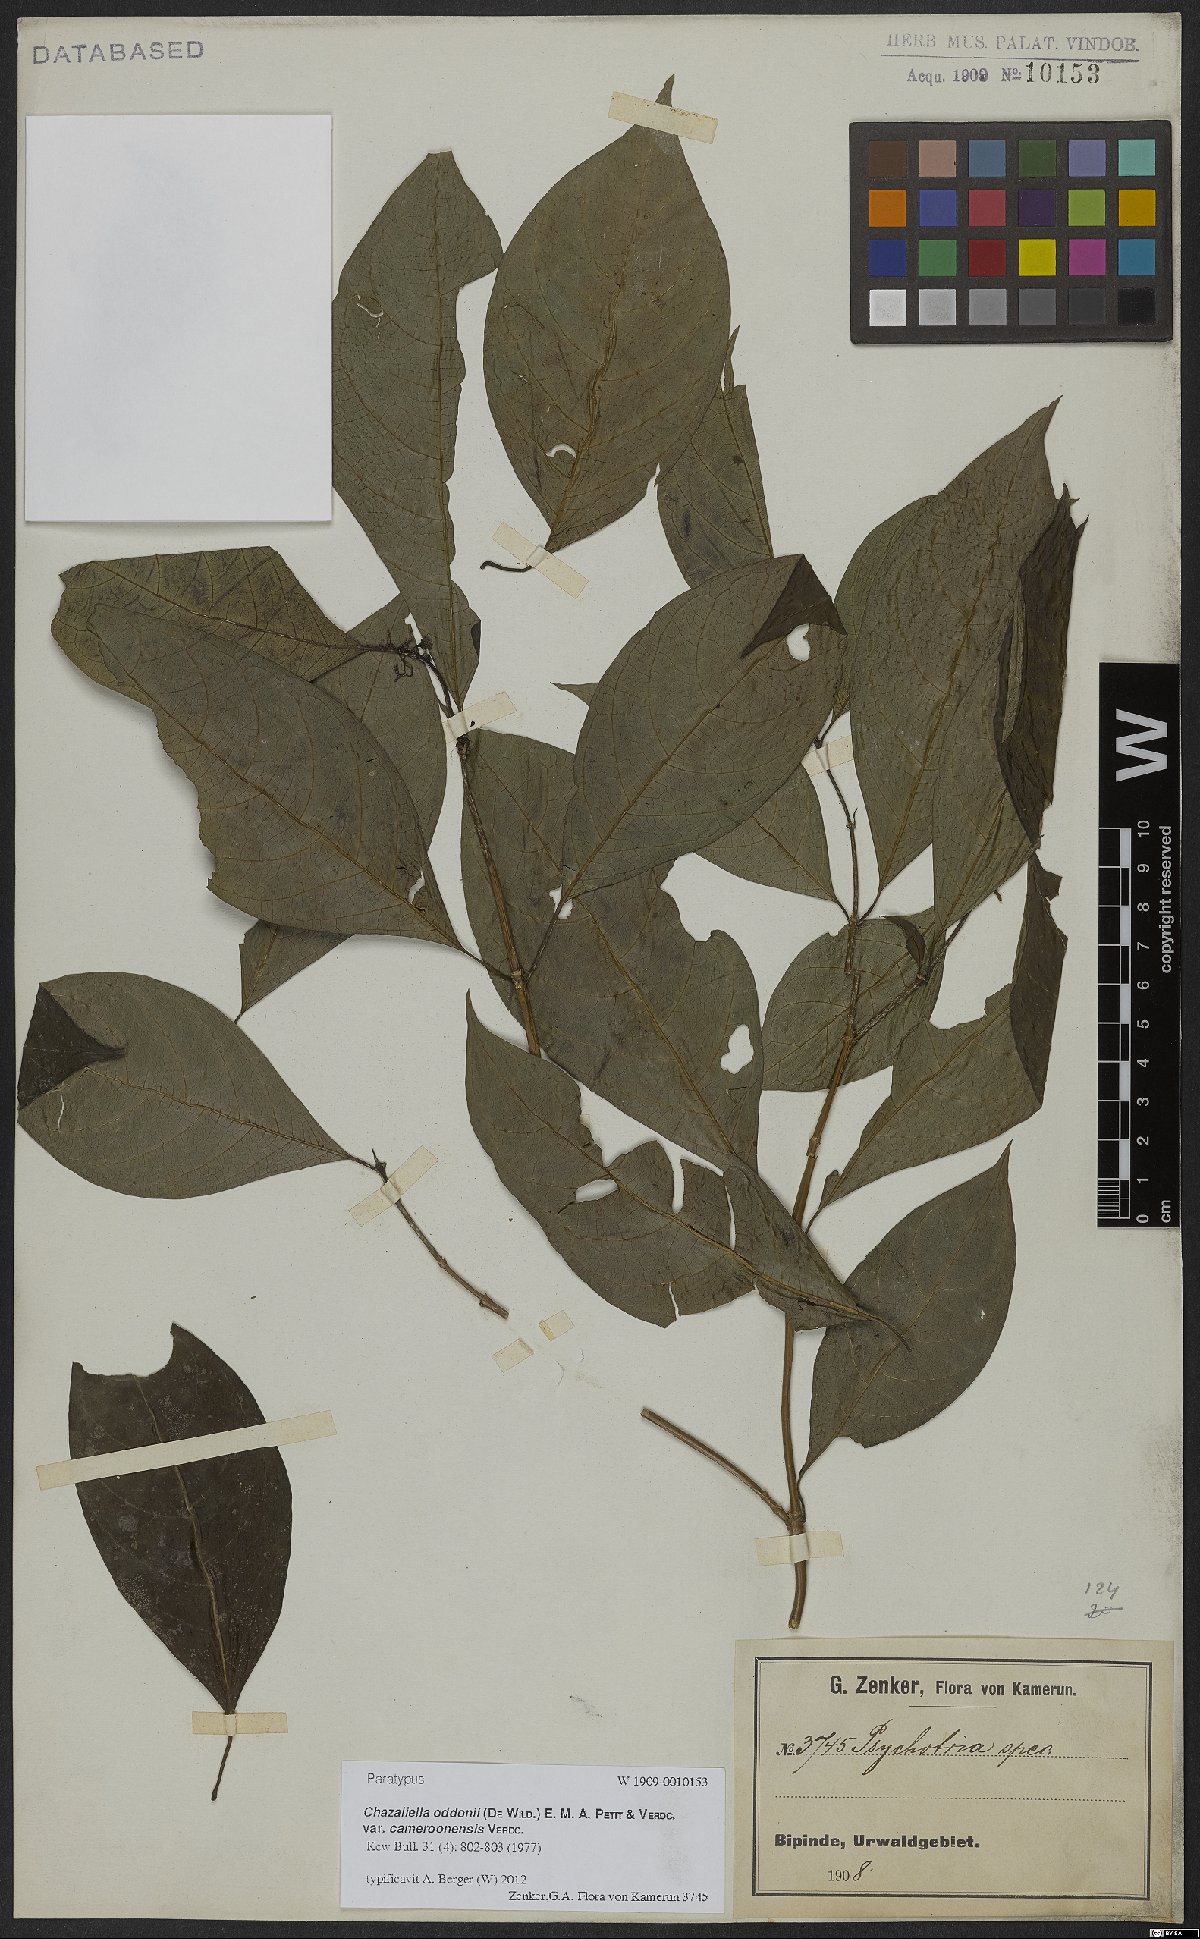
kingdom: Plantae
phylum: Tracheophyta
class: Magnoliopsida
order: Gentianales
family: Rubiaceae
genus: Eumachia
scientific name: Eumachia oddonii
